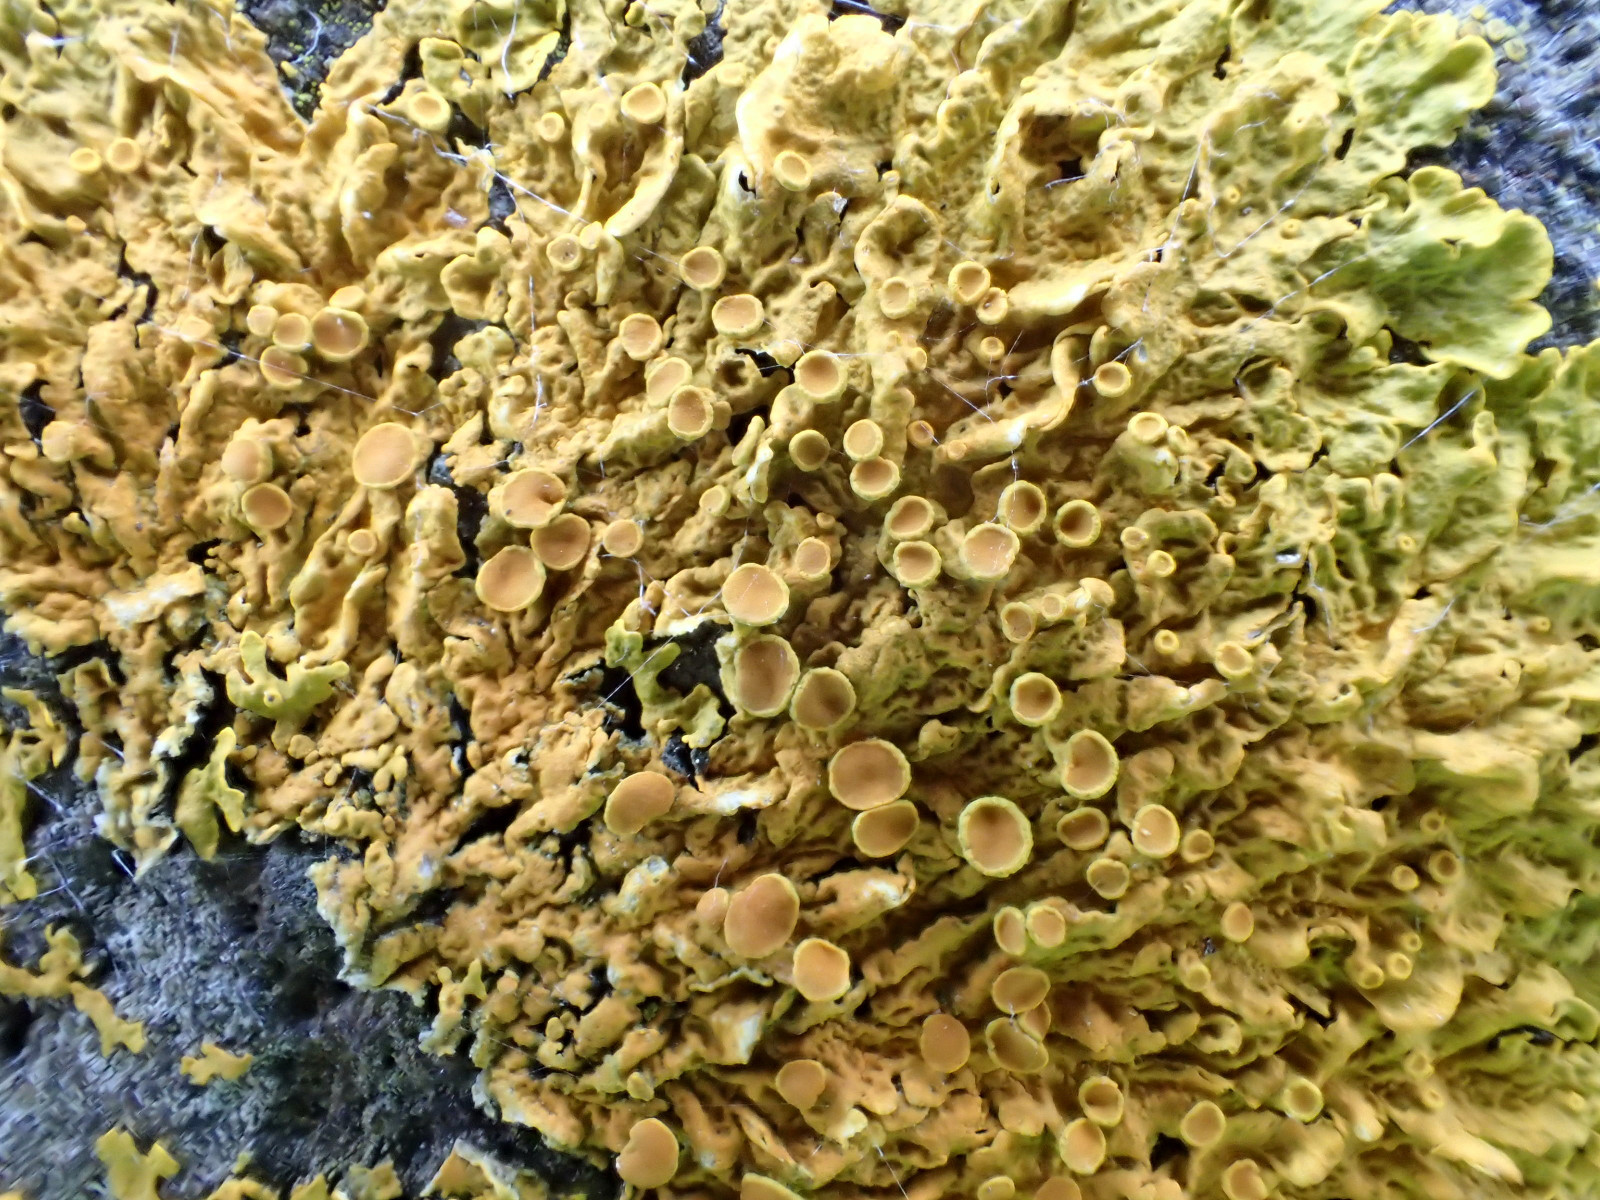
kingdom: Fungi
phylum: Ascomycota
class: Lecanoromycetes
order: Teloschistales
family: Teloschistaceae
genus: Xanthoria
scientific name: Xanthoria parietina
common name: almindelig væggelav
